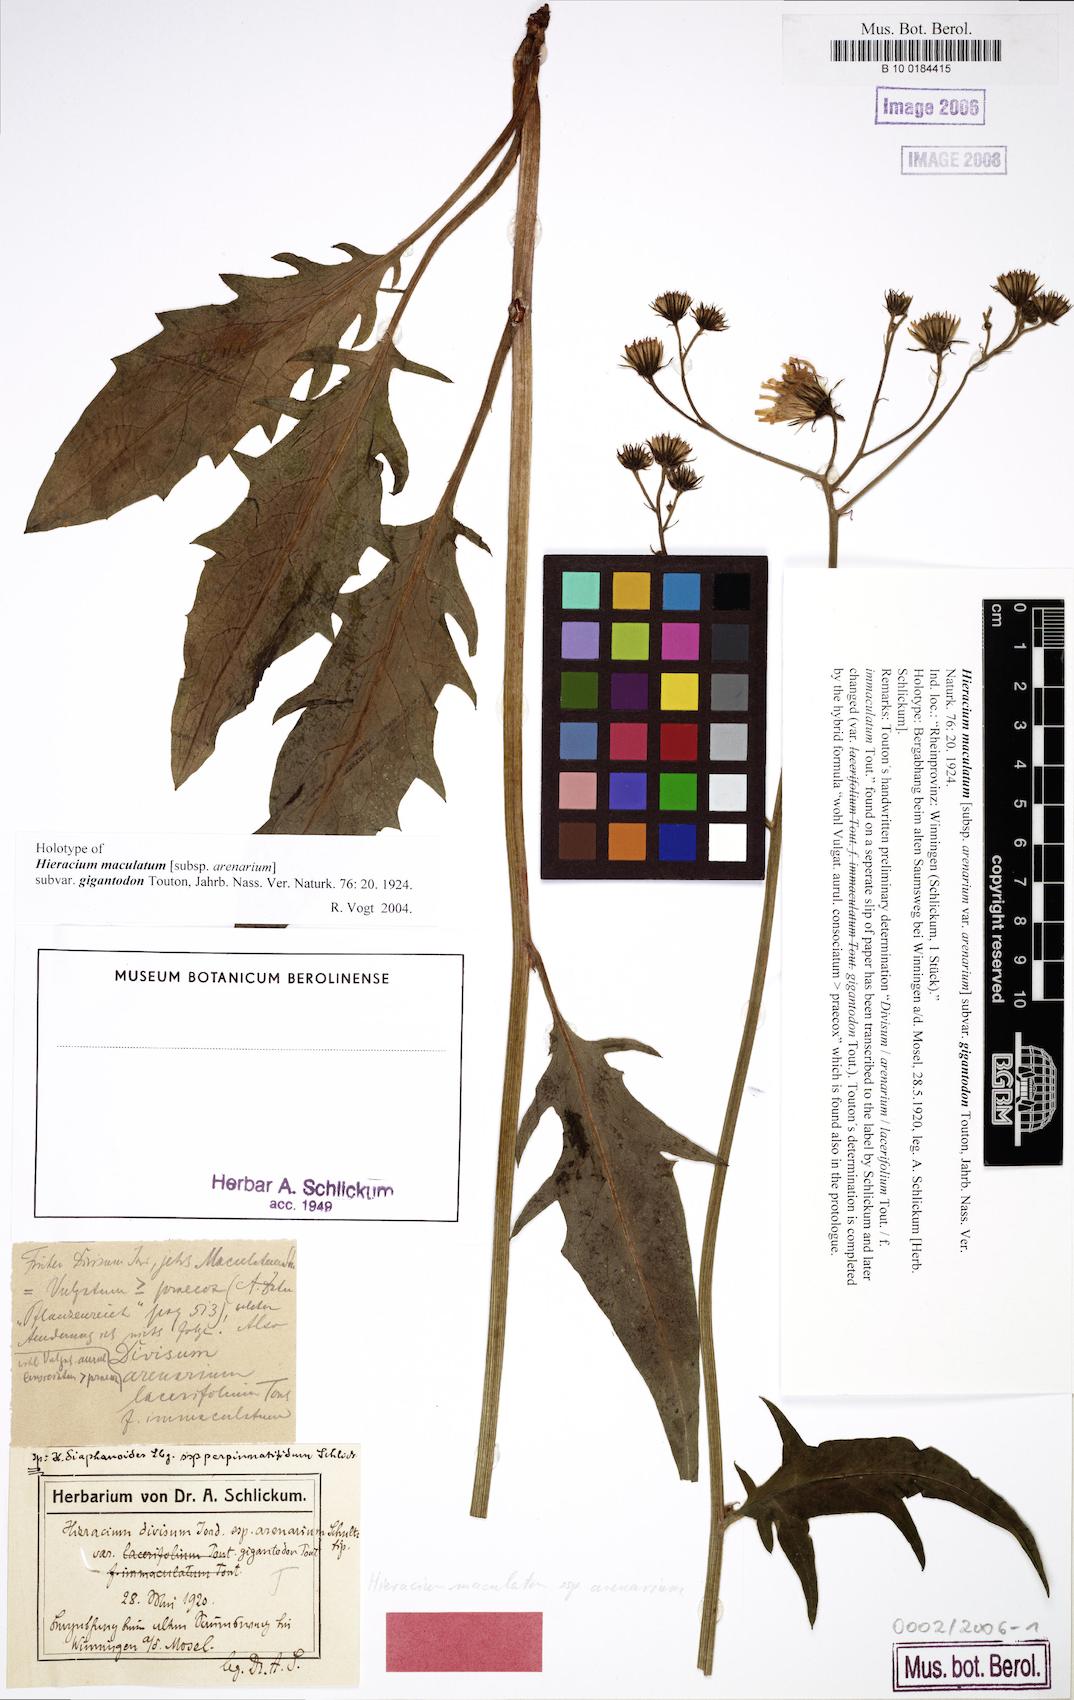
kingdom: Plantae
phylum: Tracheophyta
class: Magnoliopsida
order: Asterales
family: Asteraceae
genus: Hieracium
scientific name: Hieracium maculatum
